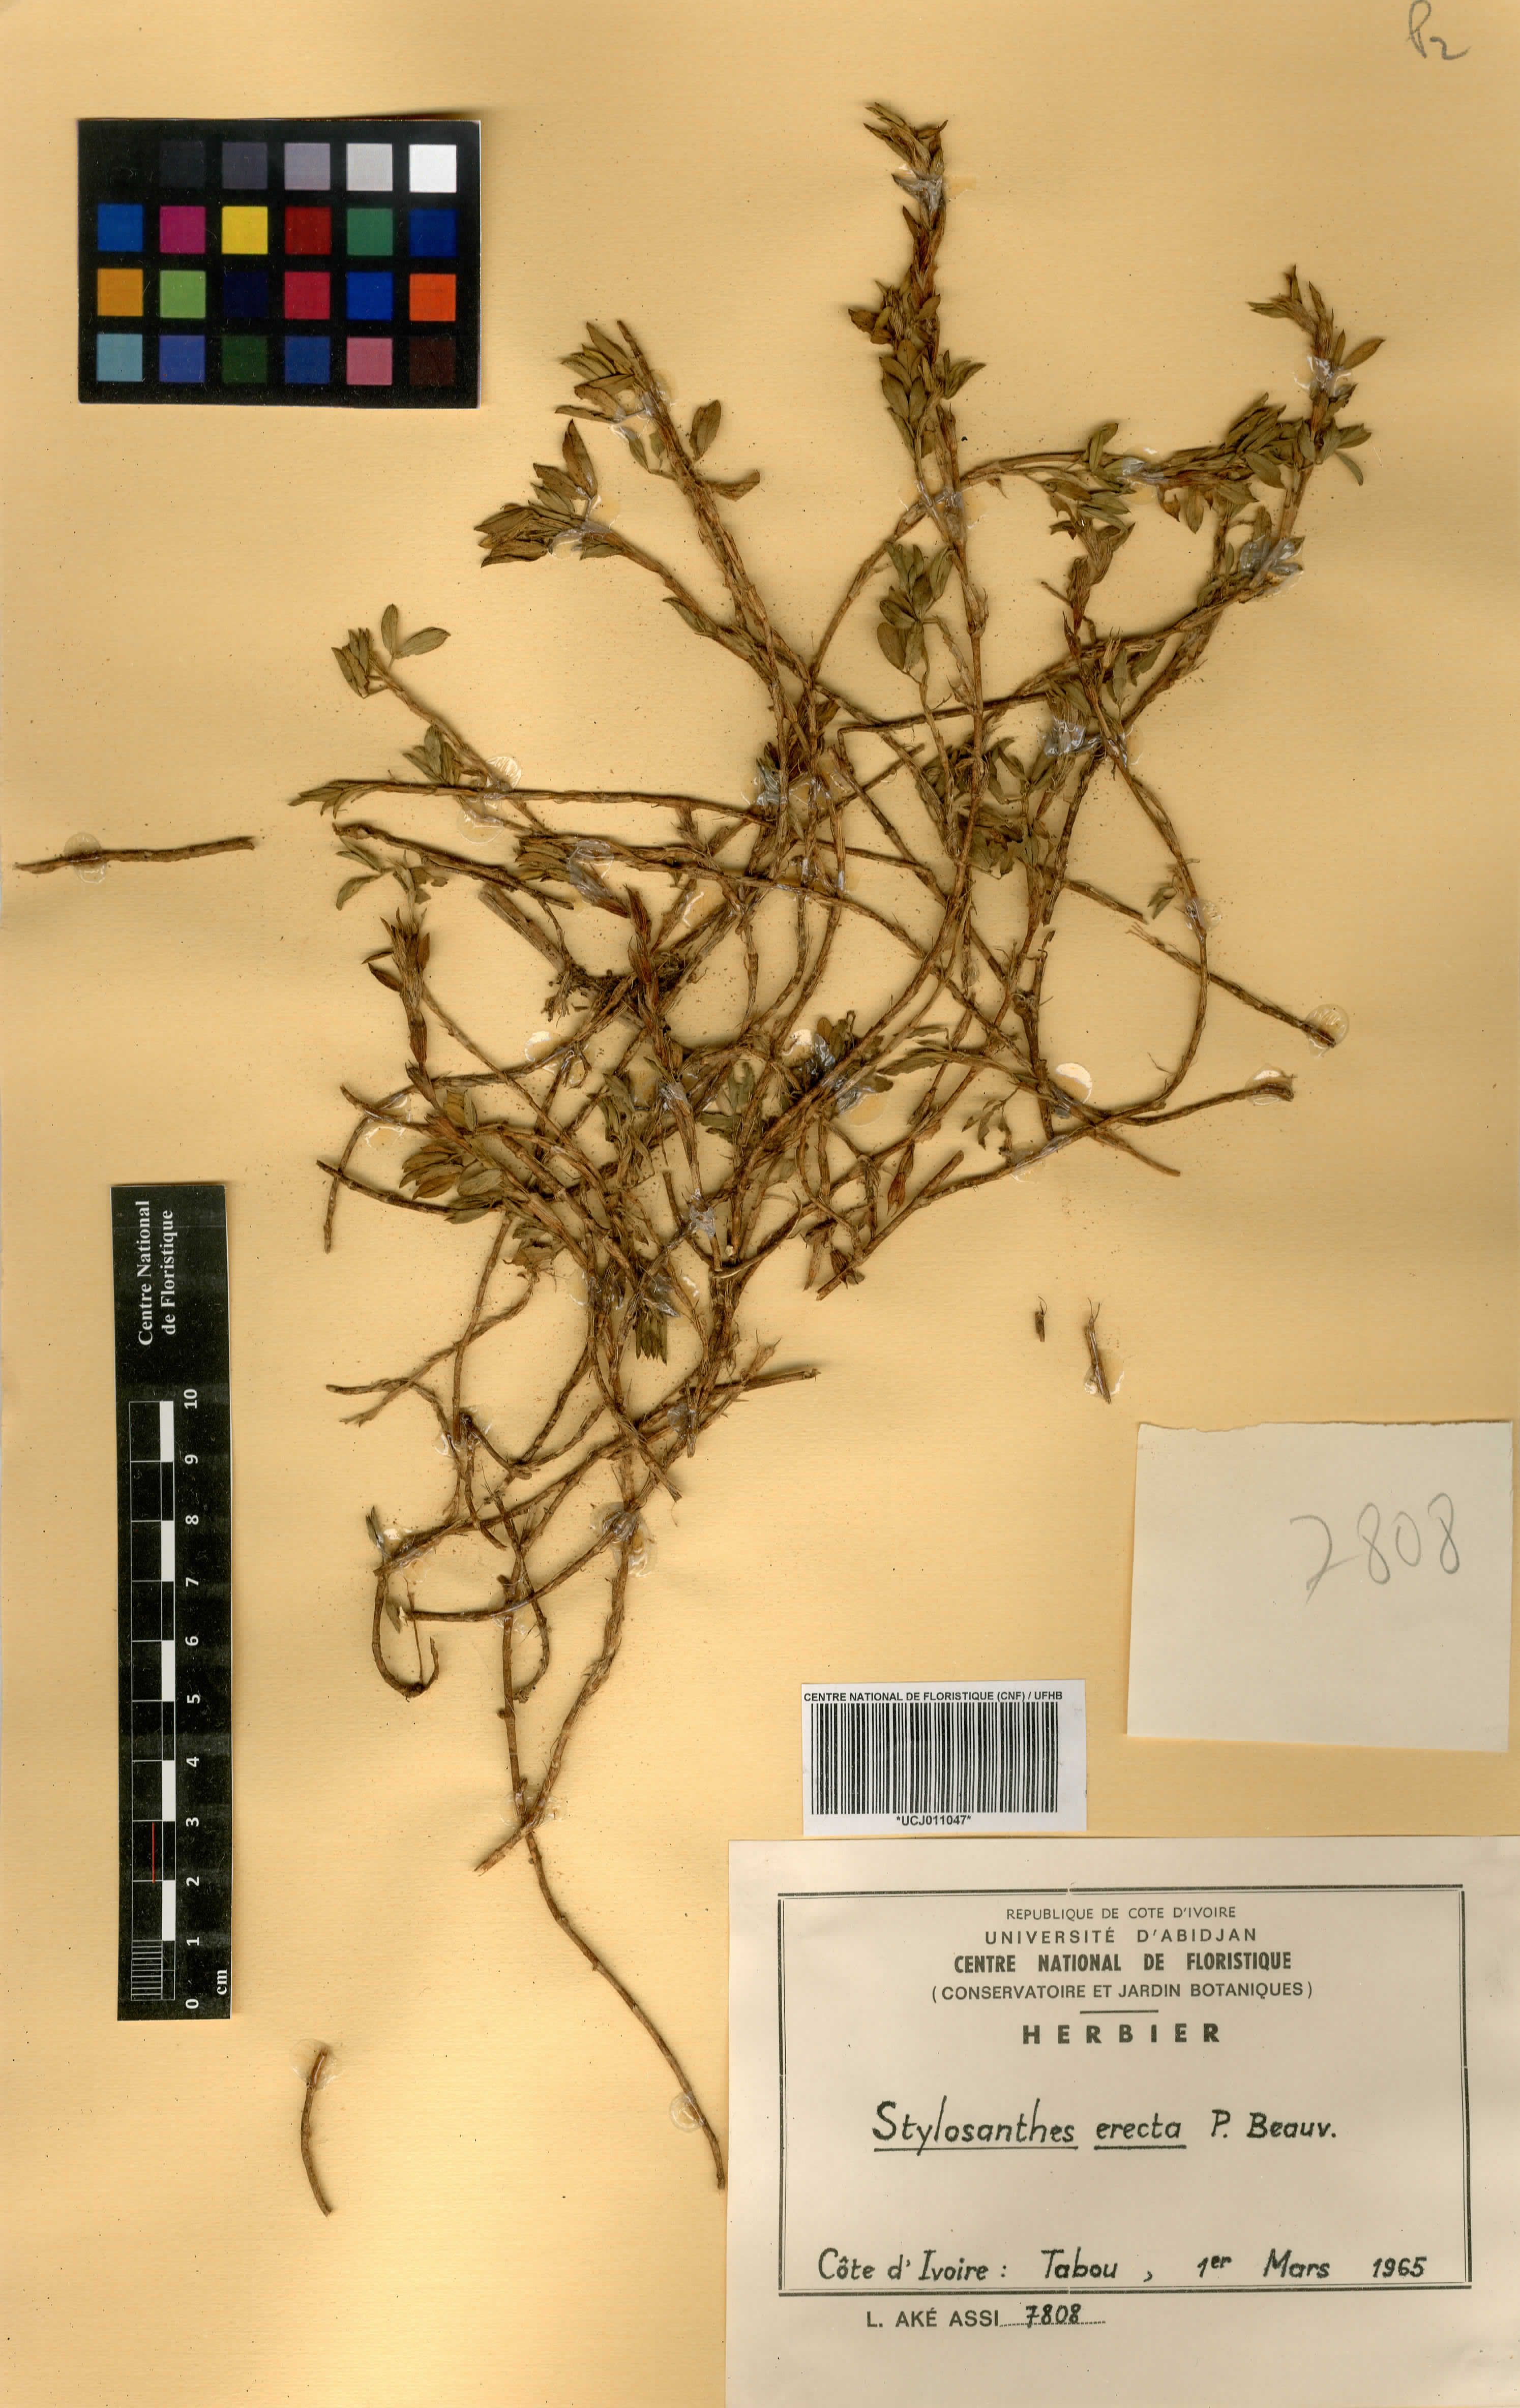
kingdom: Plantae
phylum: Tracheophyta
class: Magnoliopsida
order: Fabales
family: Fabaceae
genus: Stylosanthes
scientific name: Stylosanthes erecta
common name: Nigerian stylo
